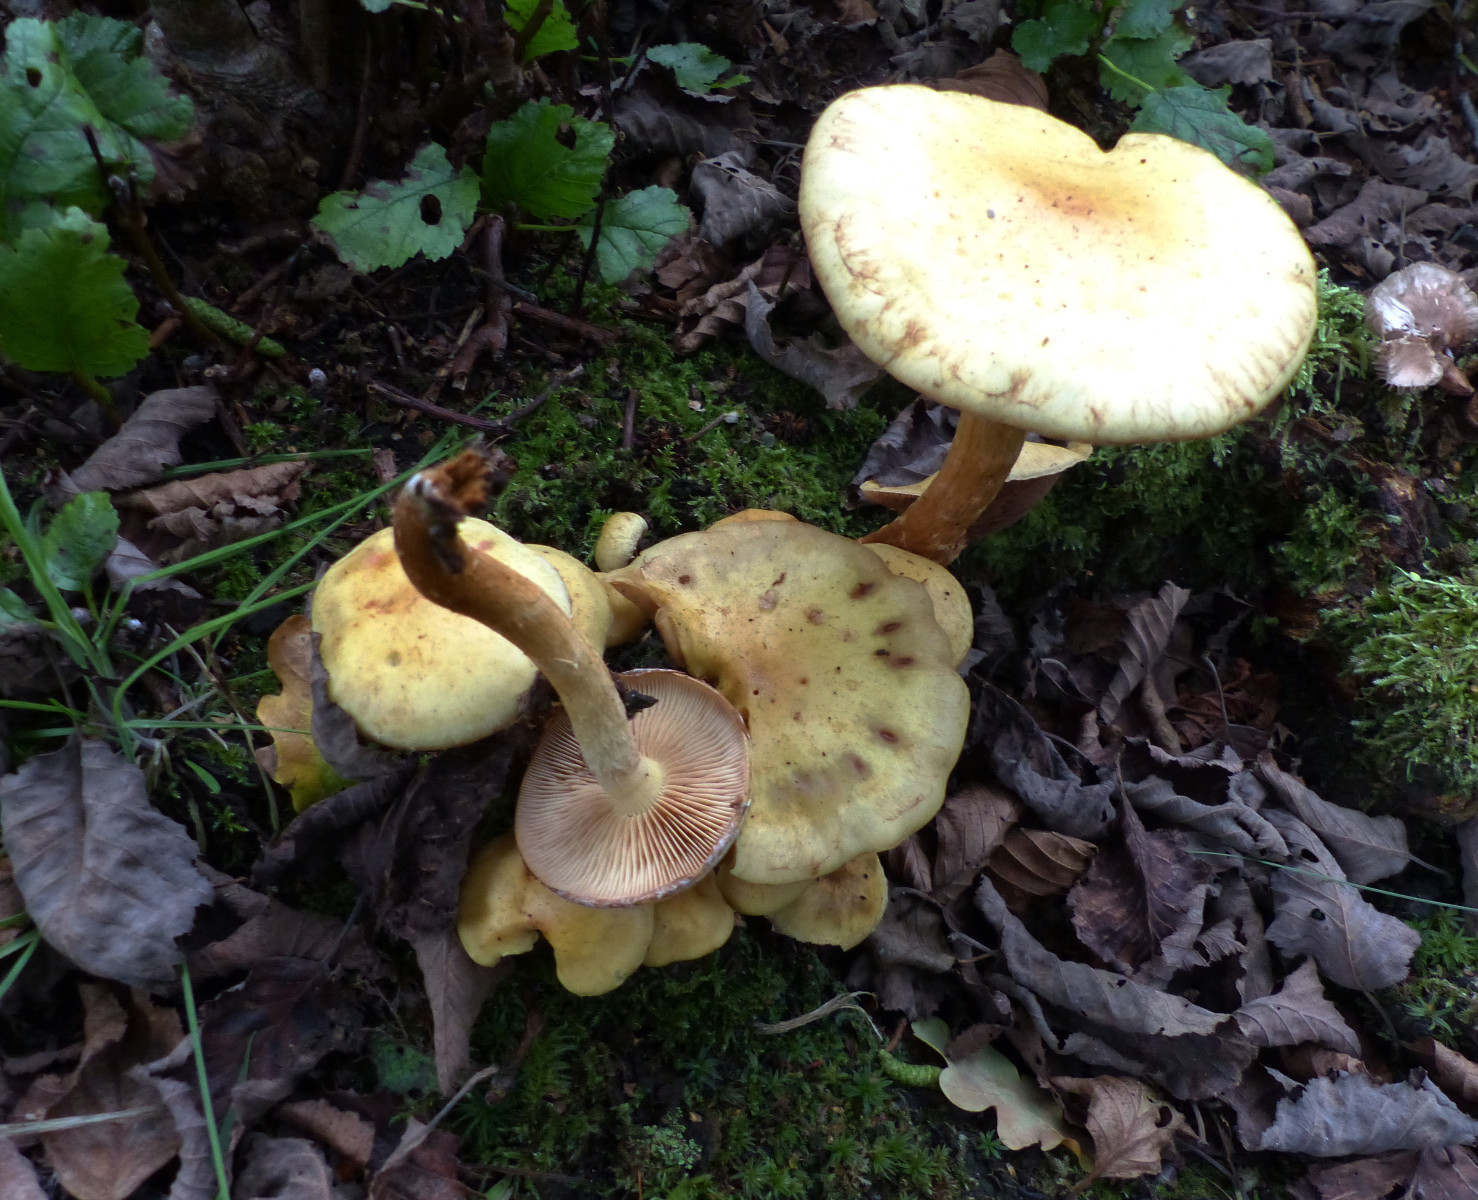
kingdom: Fungi
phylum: Basidiomycota
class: Agaricomycetes
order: Agaricales
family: Hymenogastraceae
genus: Flammula
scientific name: Flammula alnicola
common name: elle-skælhat
